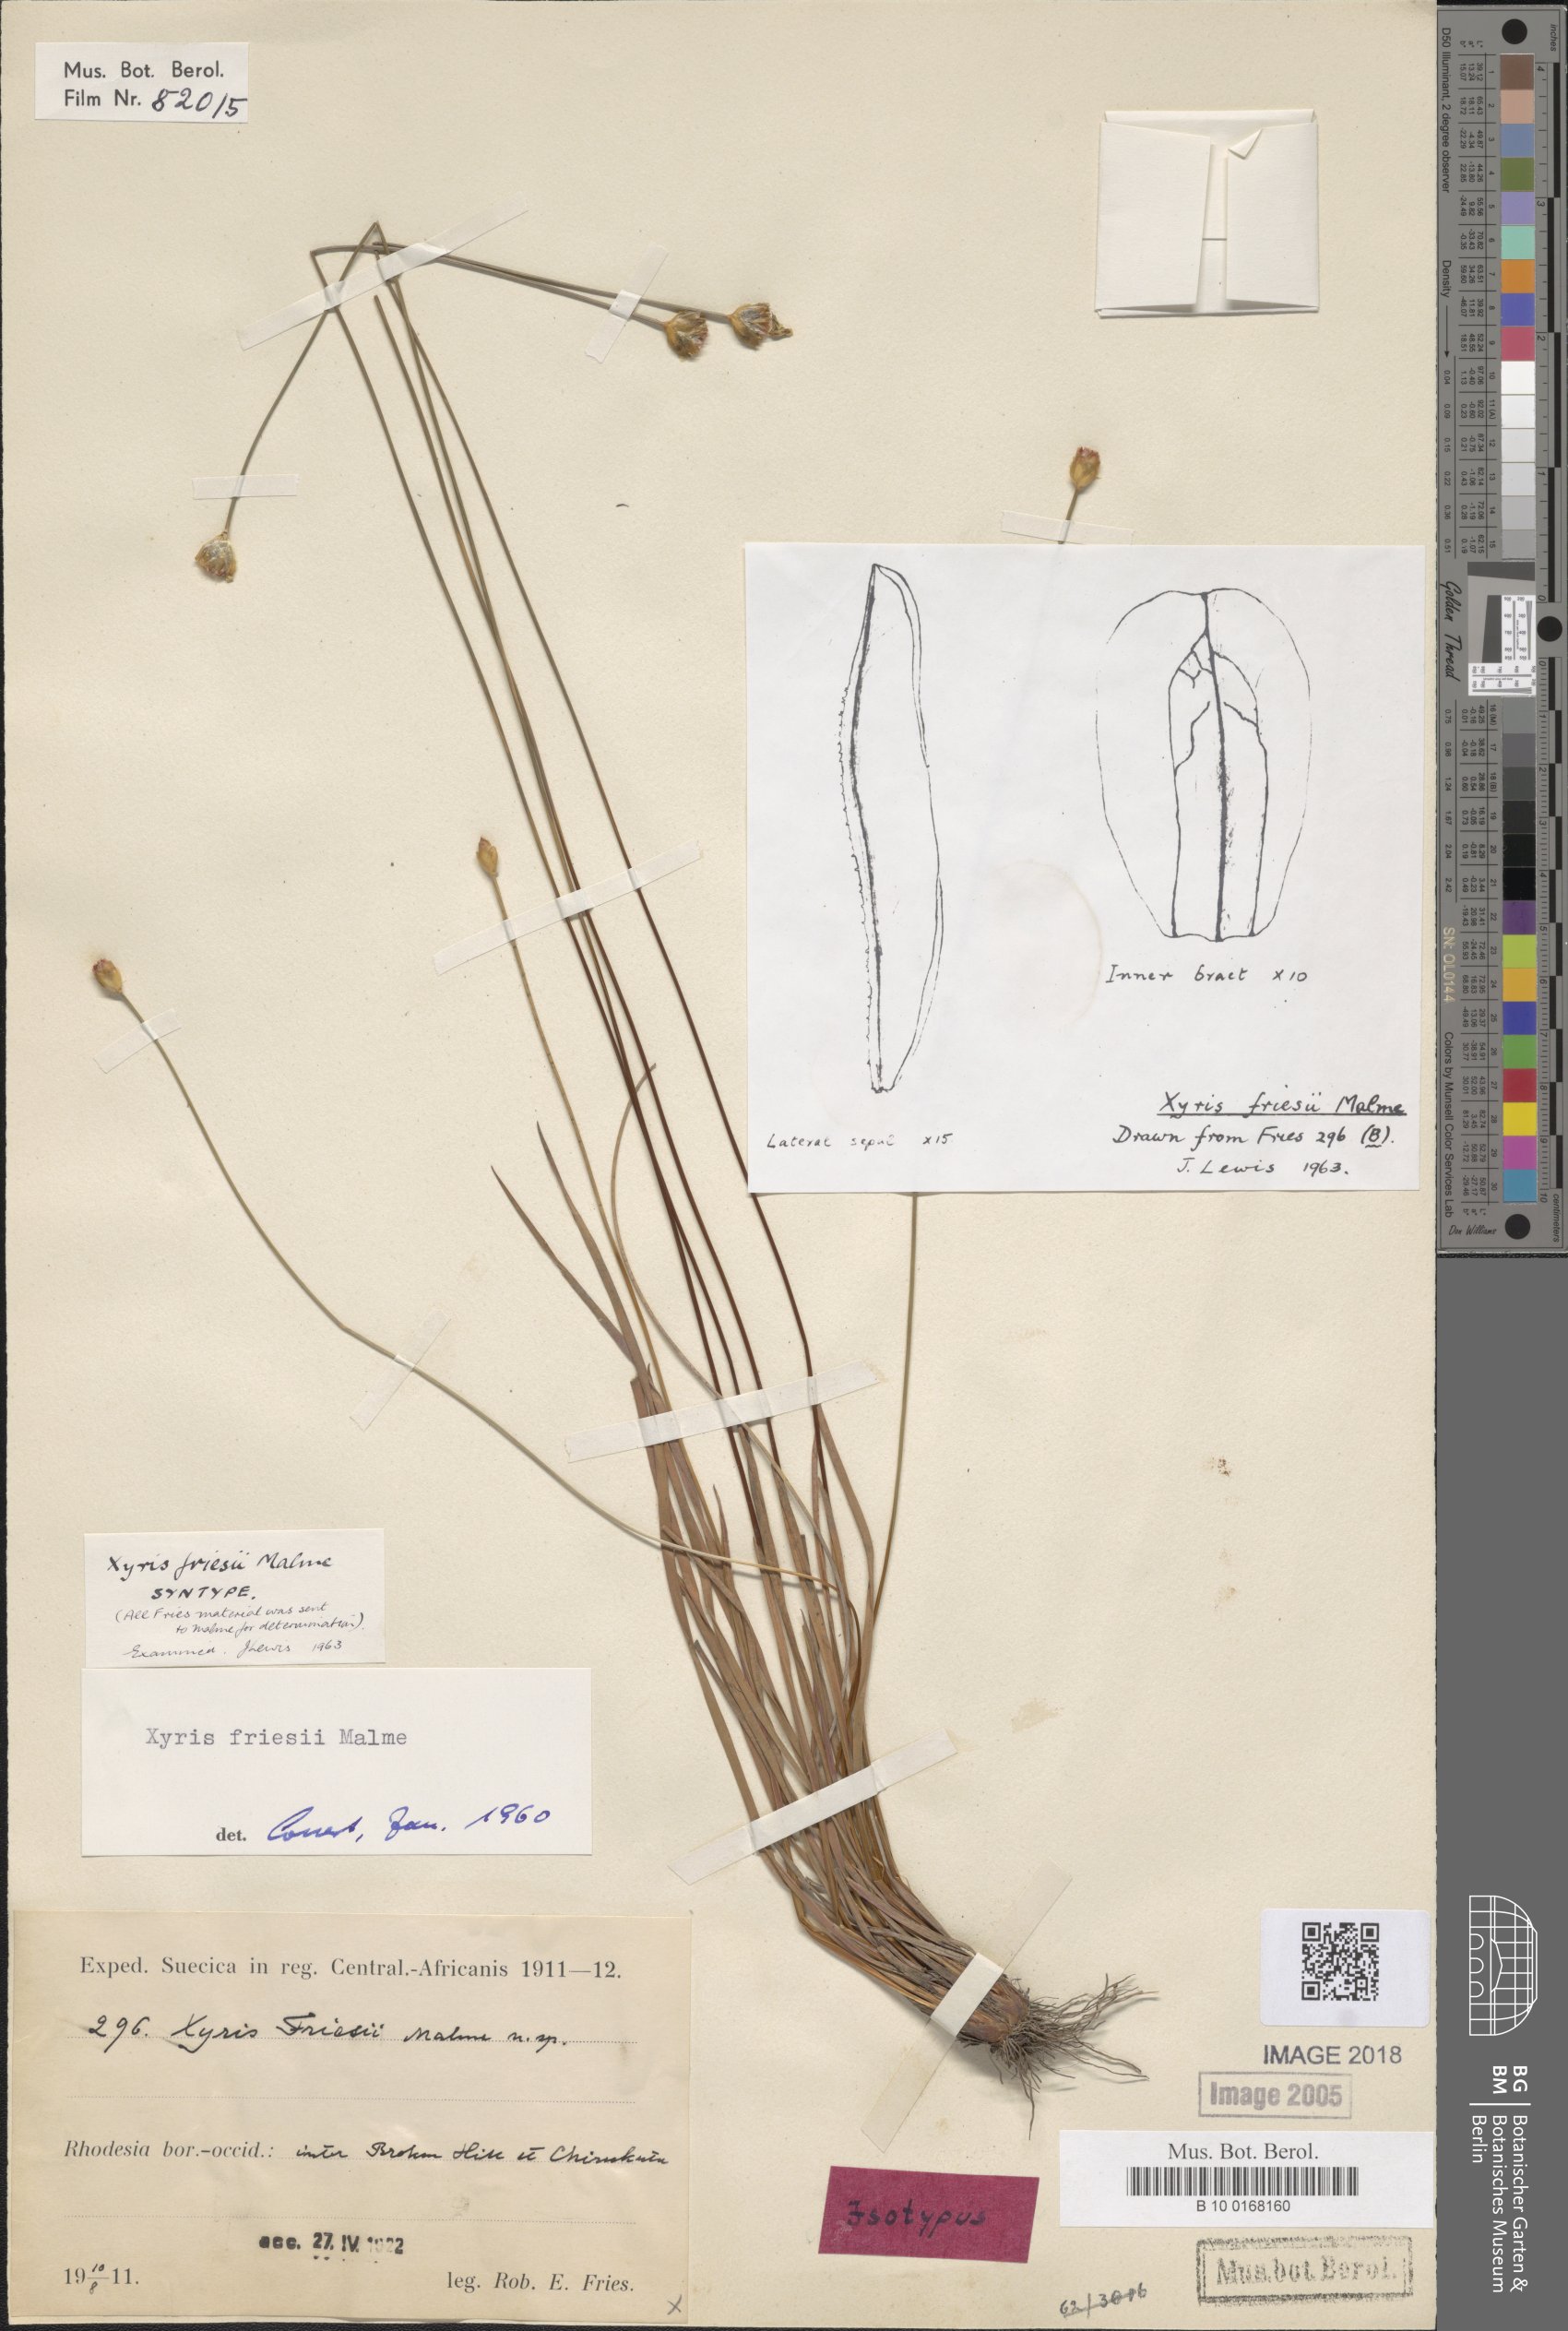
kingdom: Plantae
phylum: Tracheophyta
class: Liliopsida
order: Poales
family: Xyridaceae
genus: Xyris
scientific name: Xyris friesii
